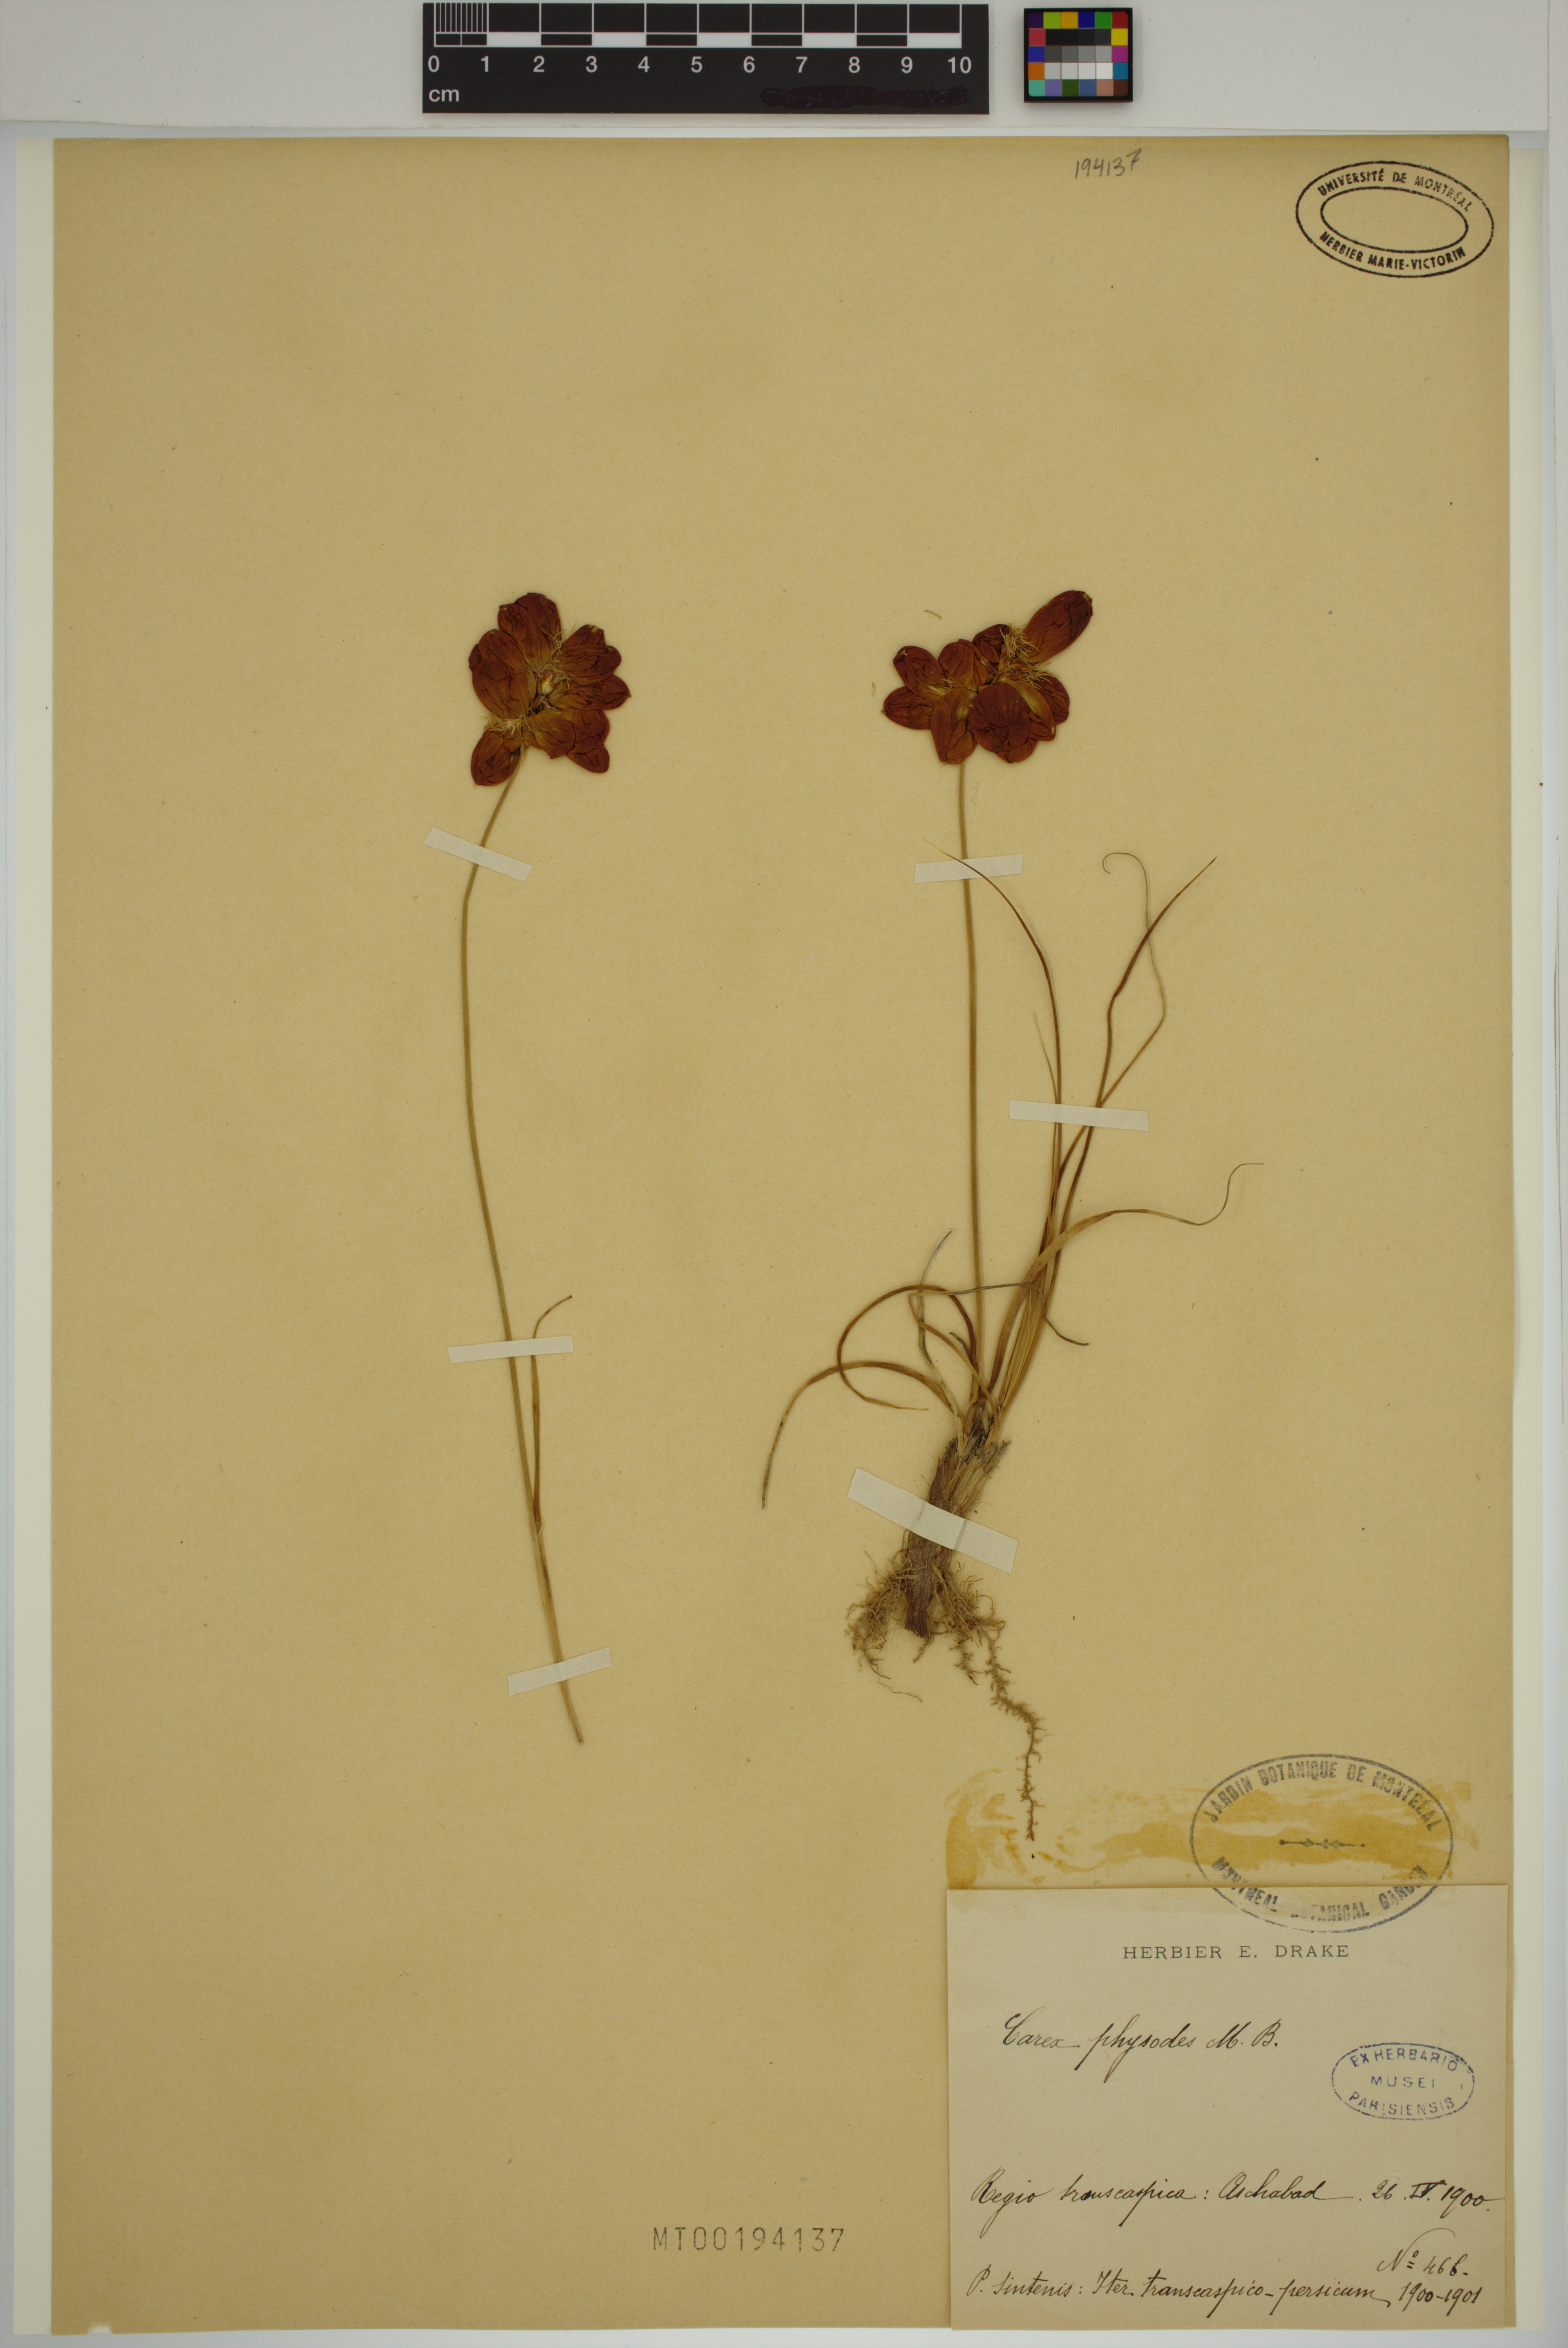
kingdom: Plantae
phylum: Tracheophyta
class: Liliopsida
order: Poales
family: Cyperaceae
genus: Carex
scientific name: Carex physodes
